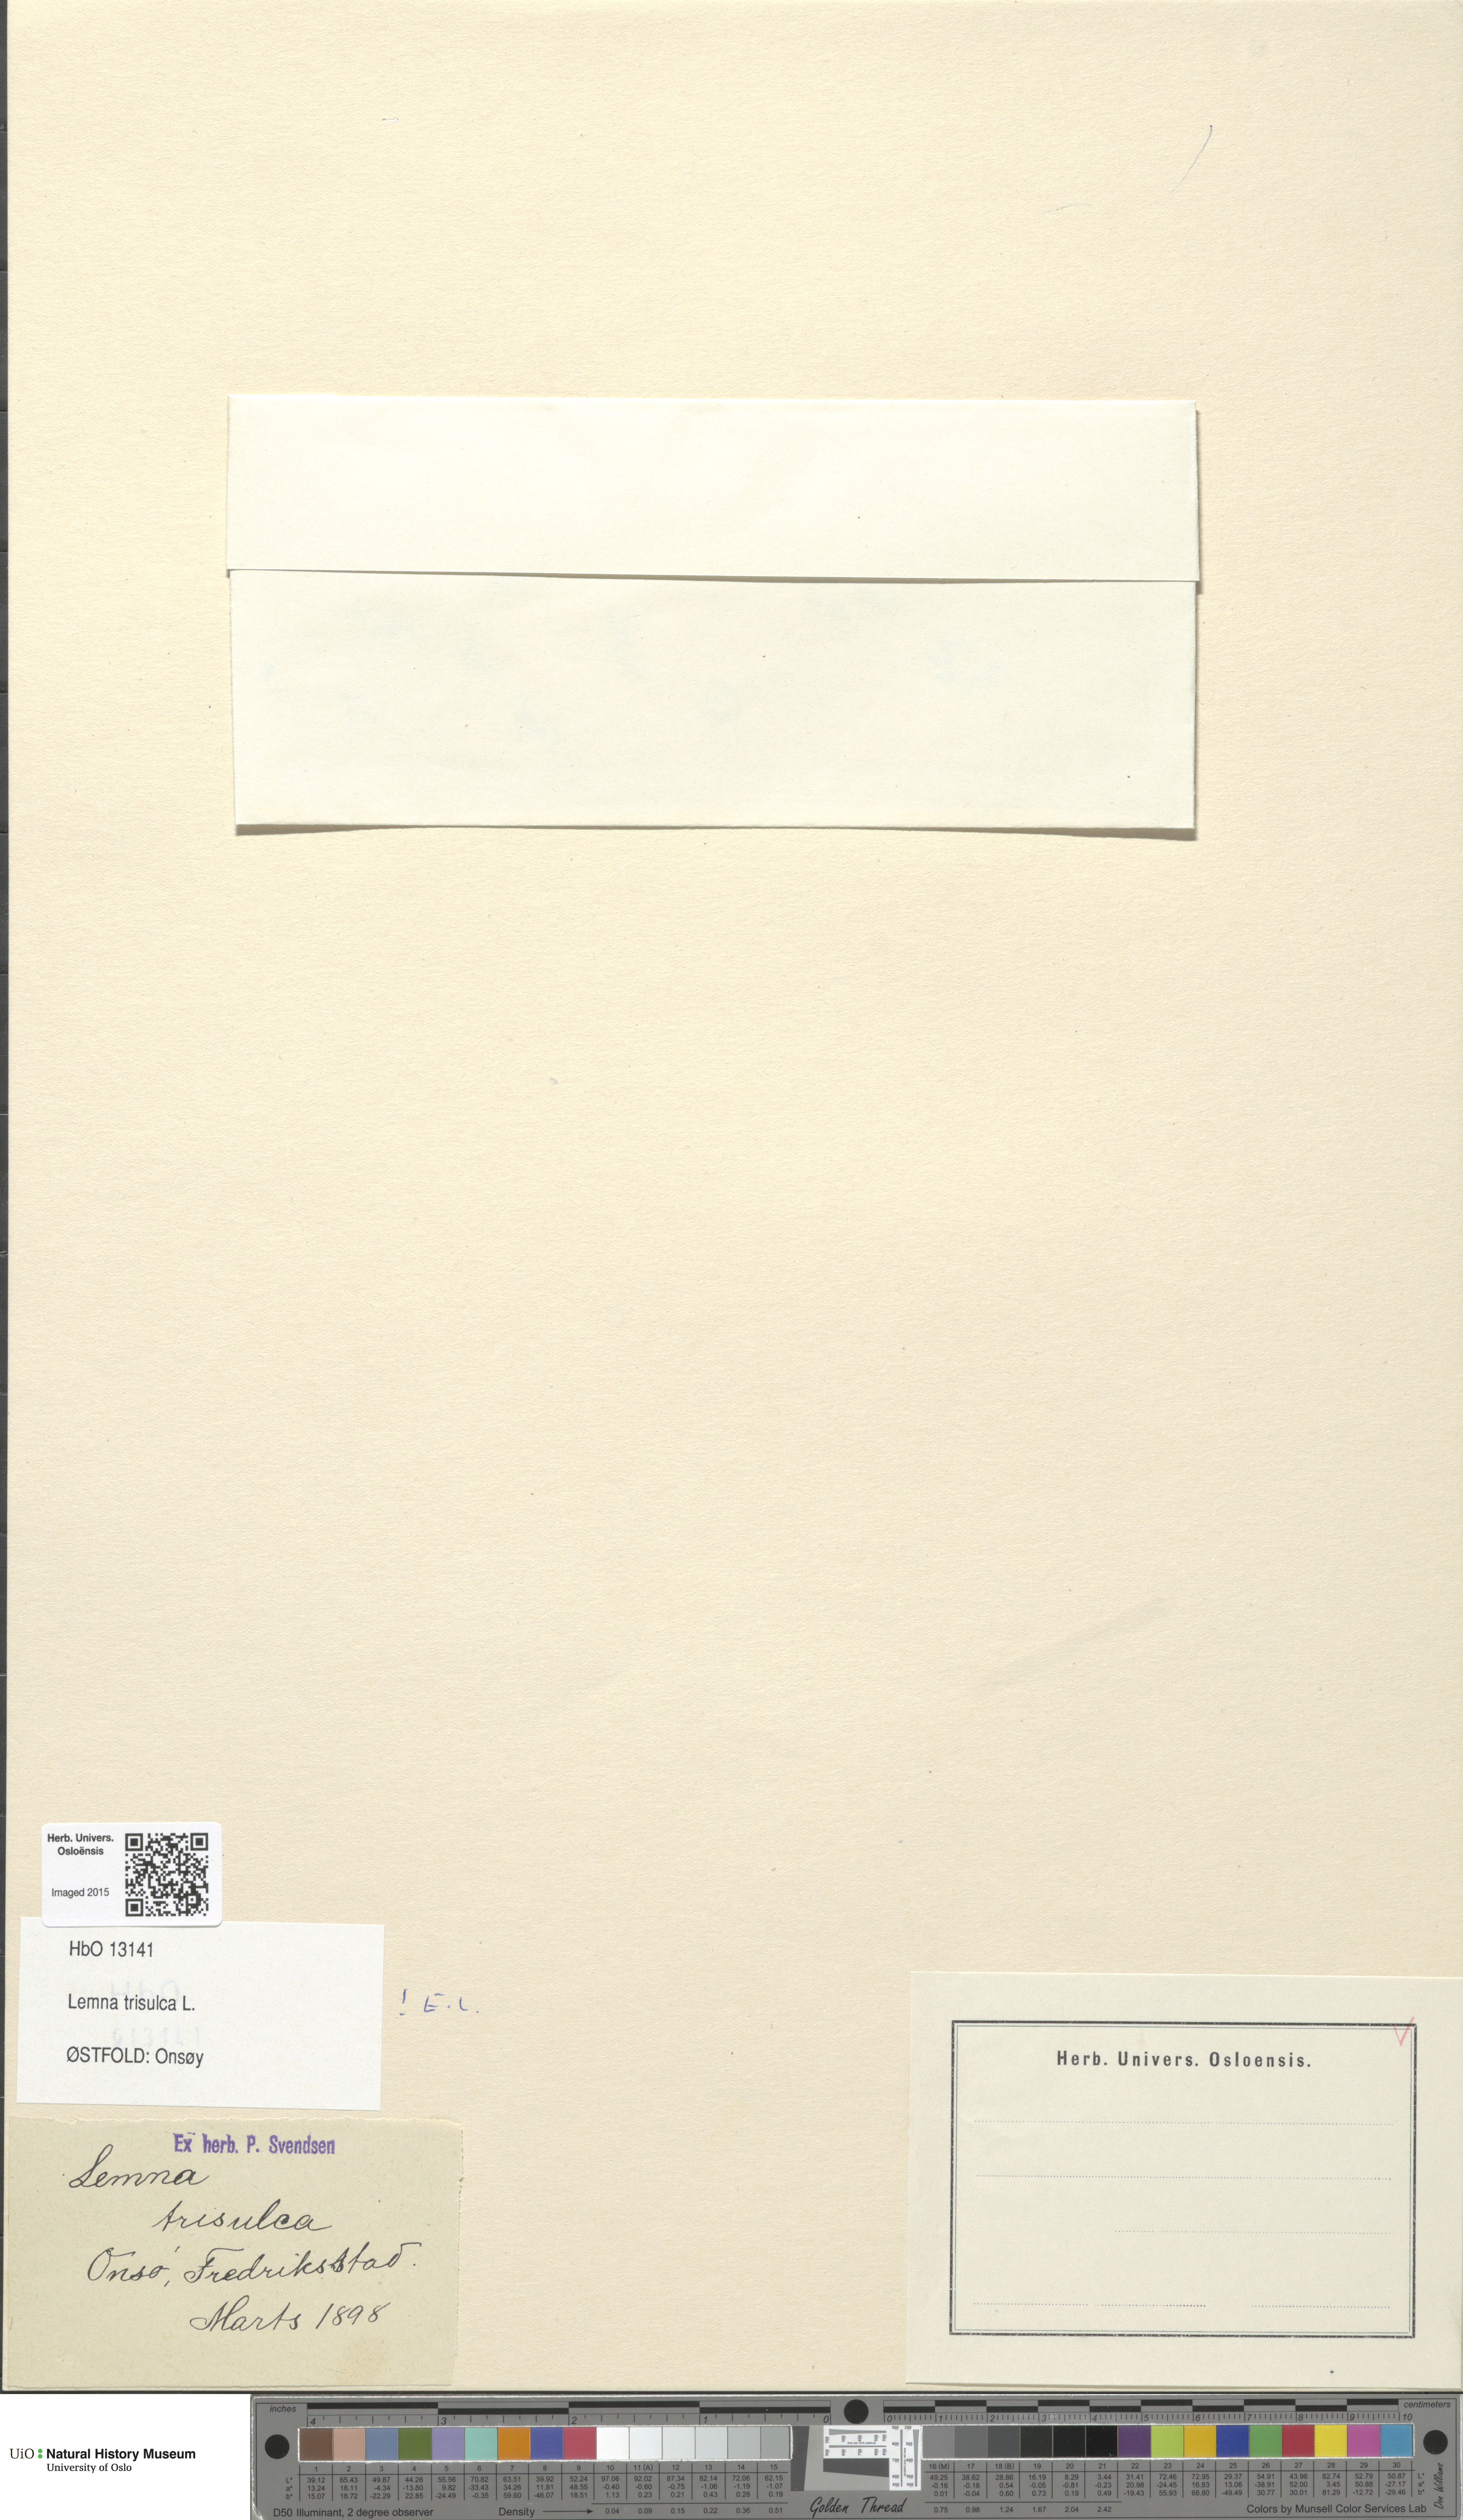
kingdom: Plantae
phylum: Tracheophyta
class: Liliopsida
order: Alismatales
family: Araceae
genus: Lemna
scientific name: Lemna trisulca
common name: Ivy-leaved duckweed
